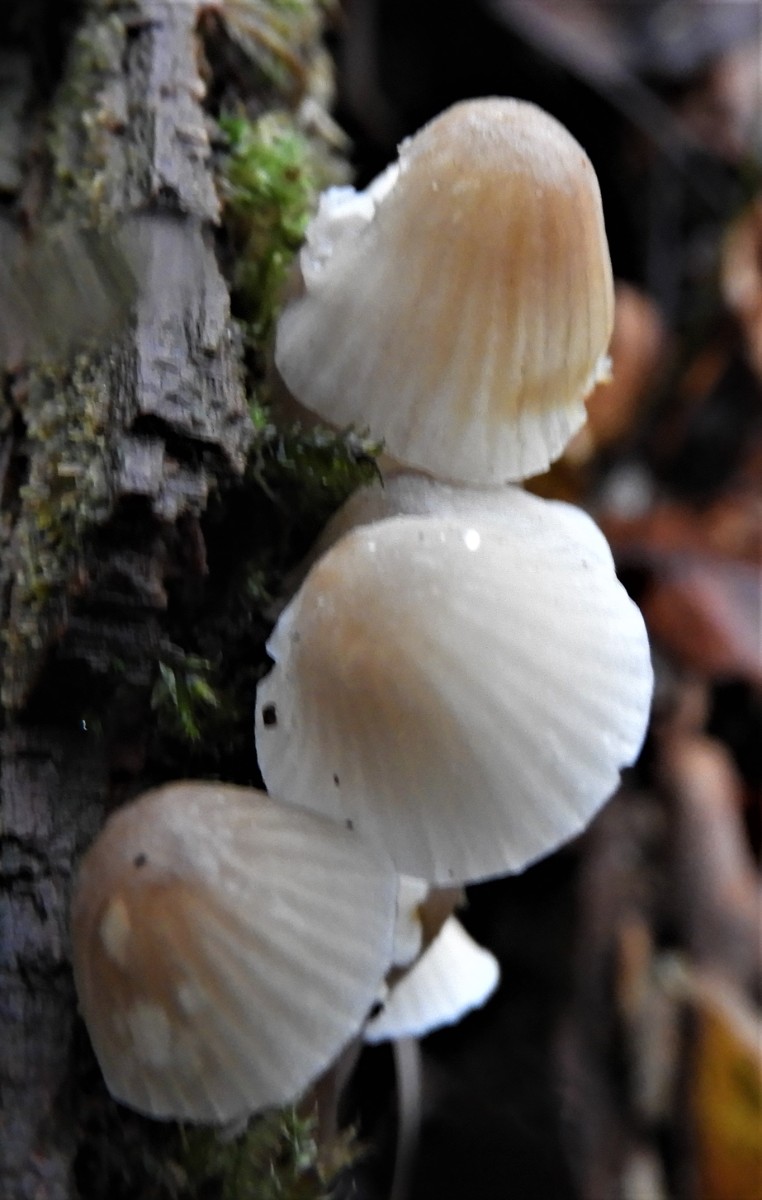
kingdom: Fungi
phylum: Basidiomycota
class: Agaricomycetes
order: Agaricales
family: Mycenaceae
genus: Mycena
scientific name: Mycena
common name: huesvamp
